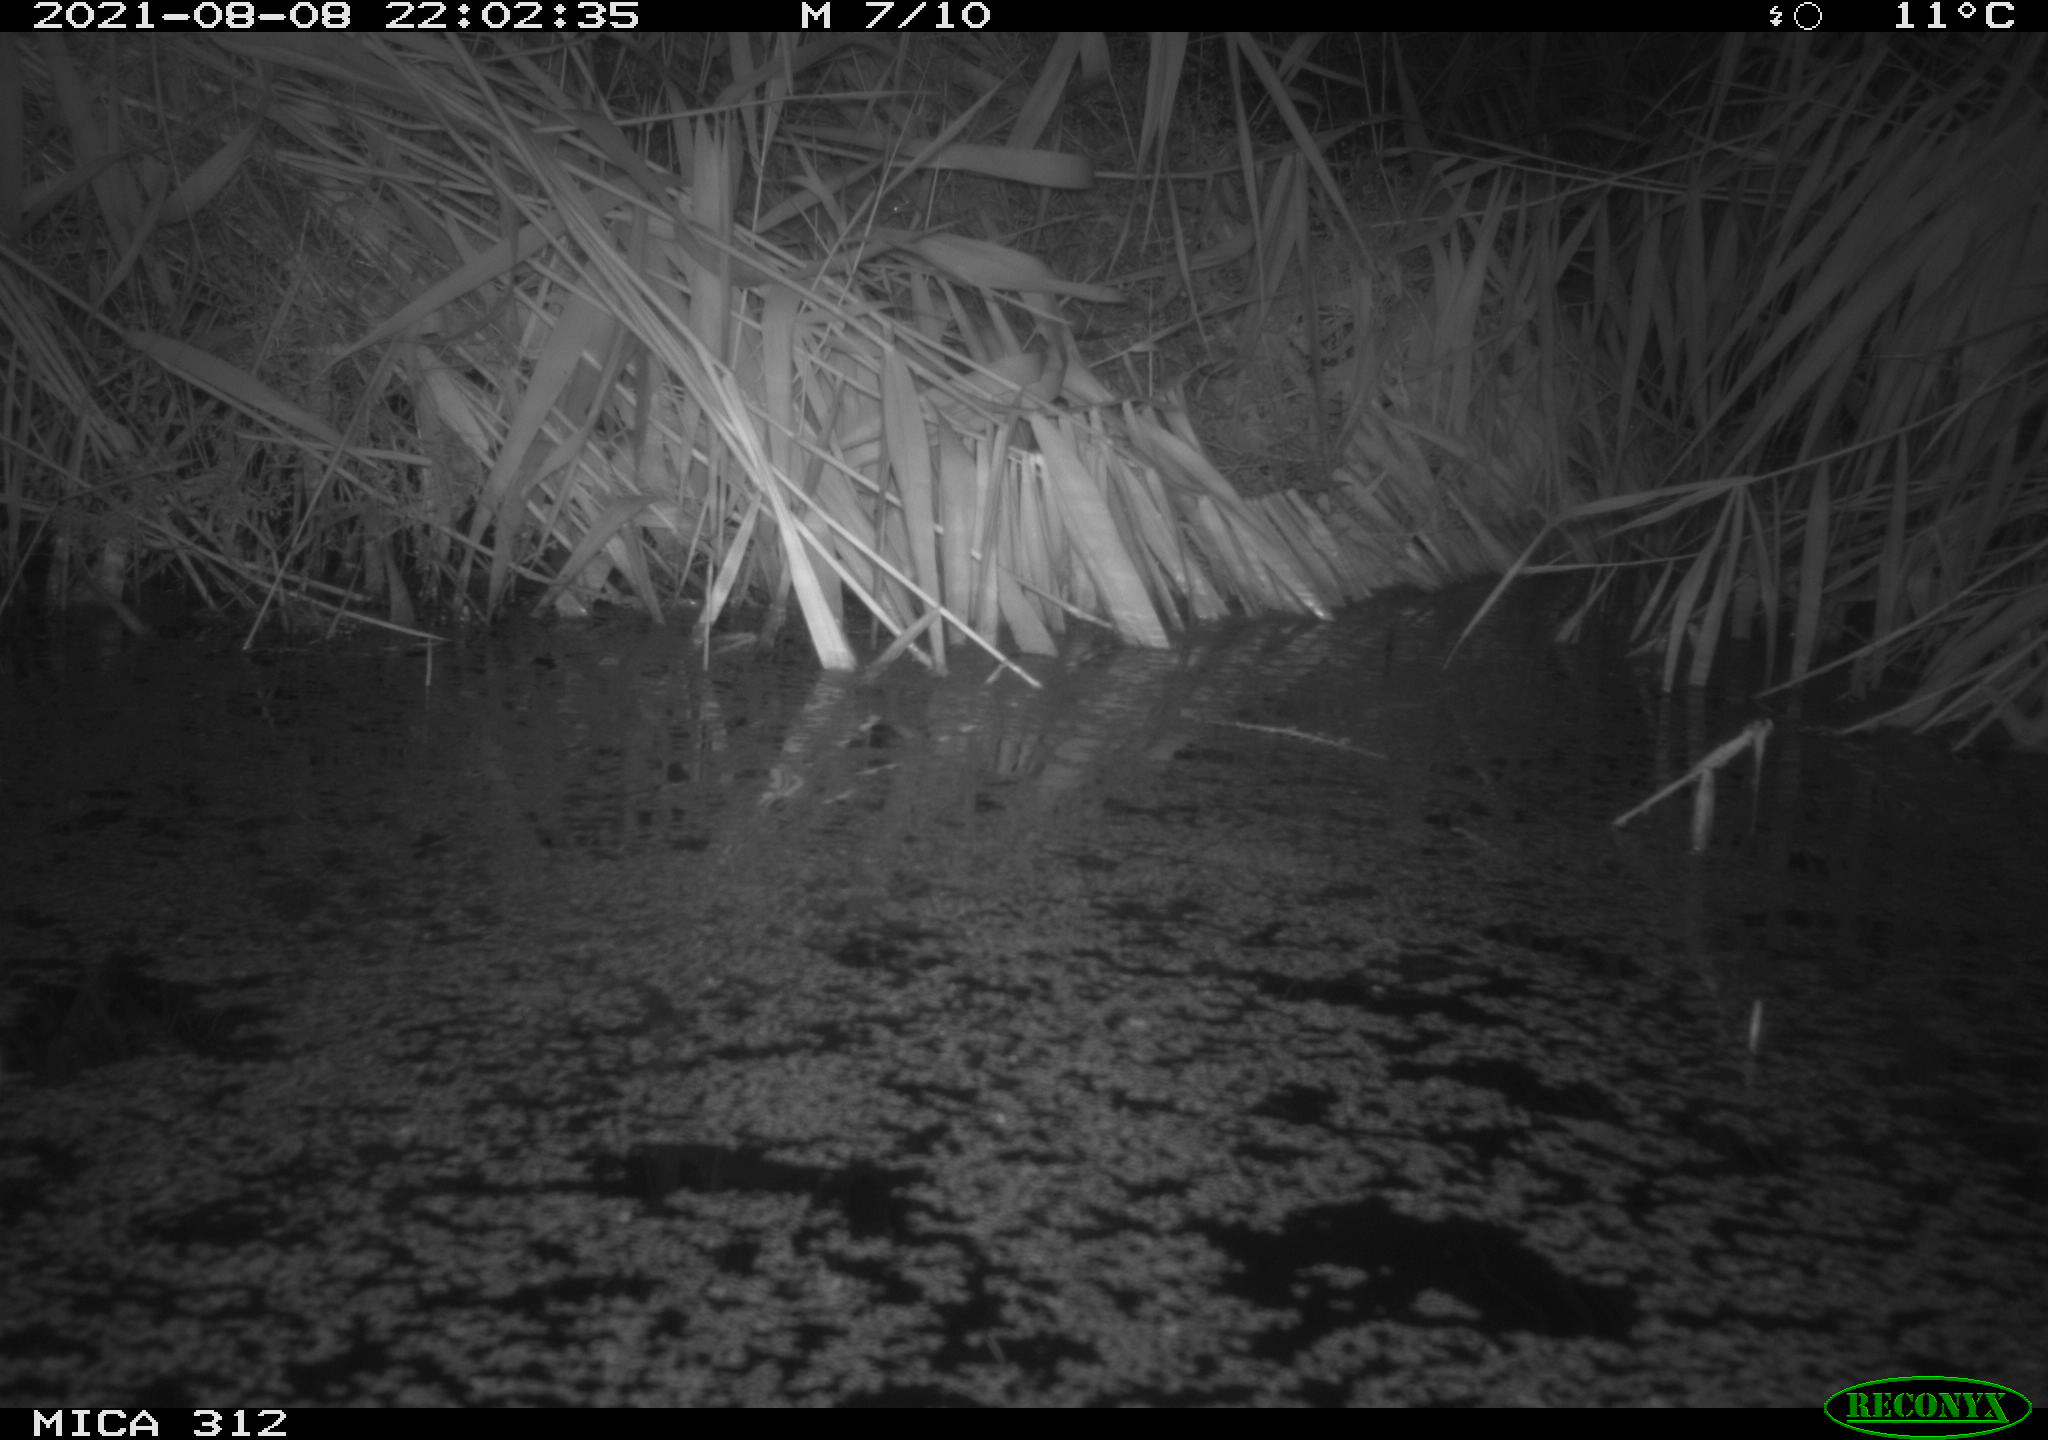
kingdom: Animalia
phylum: Chordata
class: Mammalia
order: Rodentia
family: Muridae
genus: Rattus
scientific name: Rattus norvegicus
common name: Brown rat
